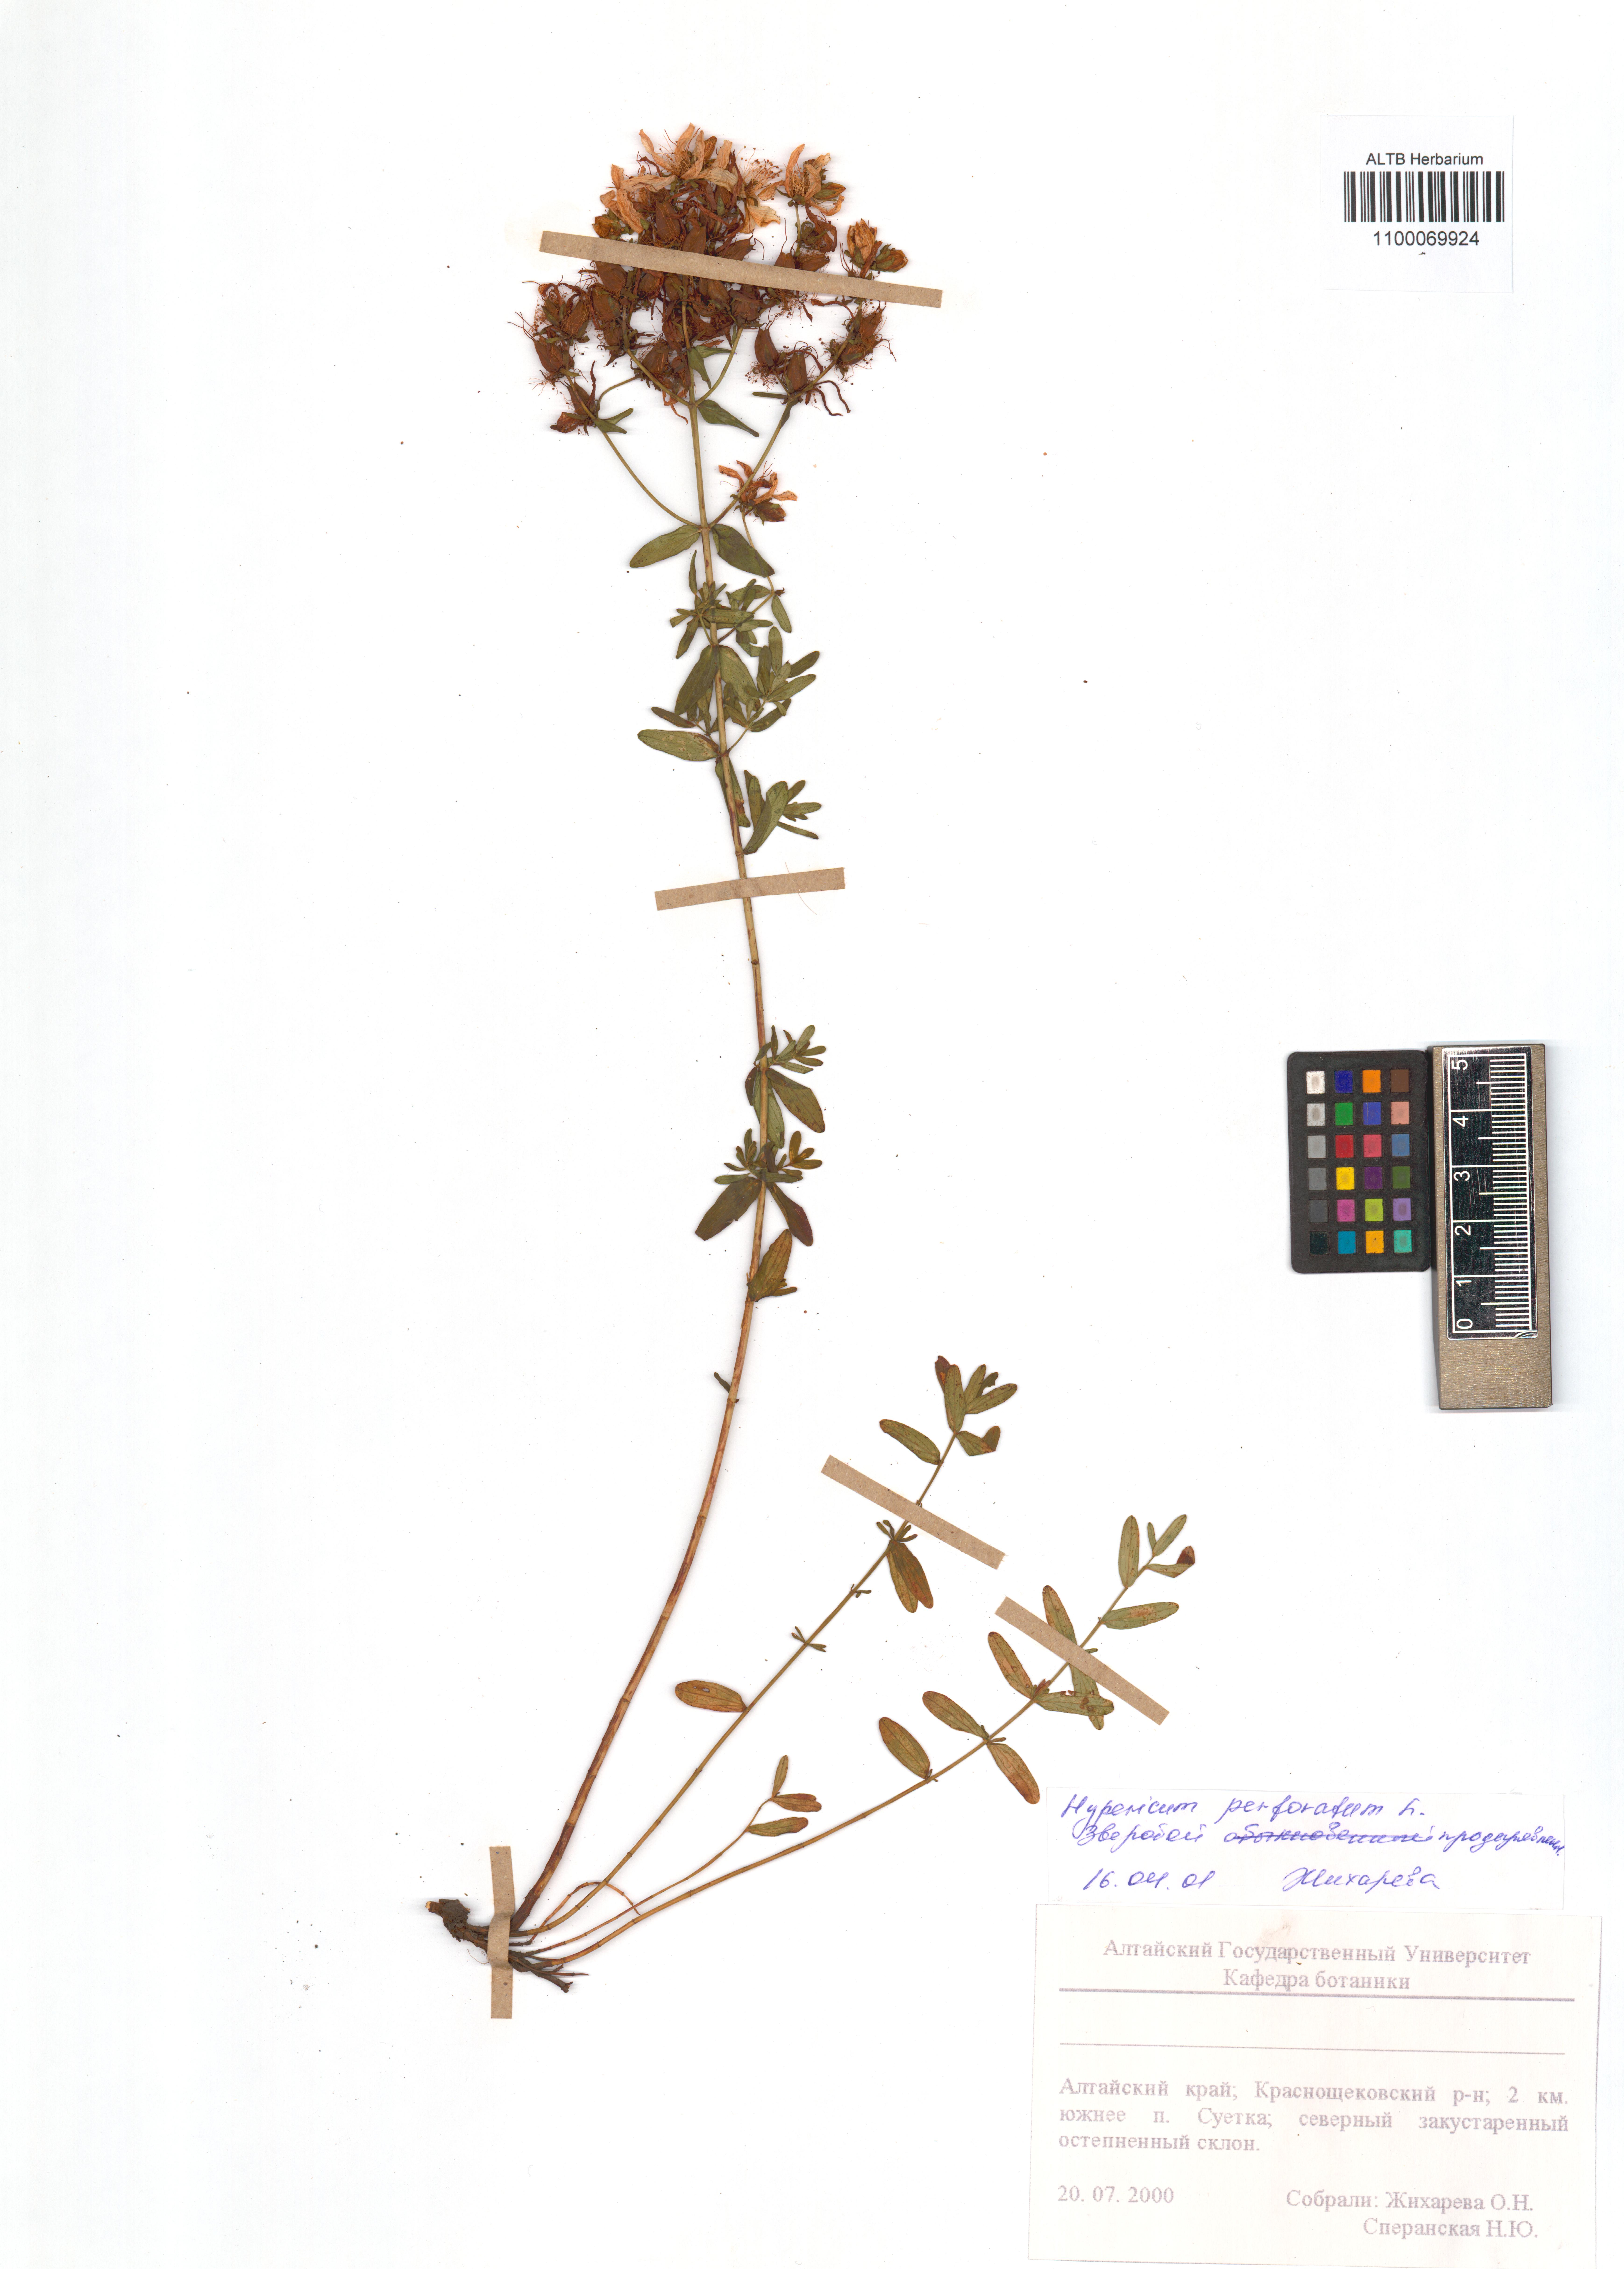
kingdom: Plantae
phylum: Tracheophyta
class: Magnoliopsida
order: Malpighiales
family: Hypericaceae
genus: Hypericum
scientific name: Hypericum perforatum
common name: Common st. johnswort
